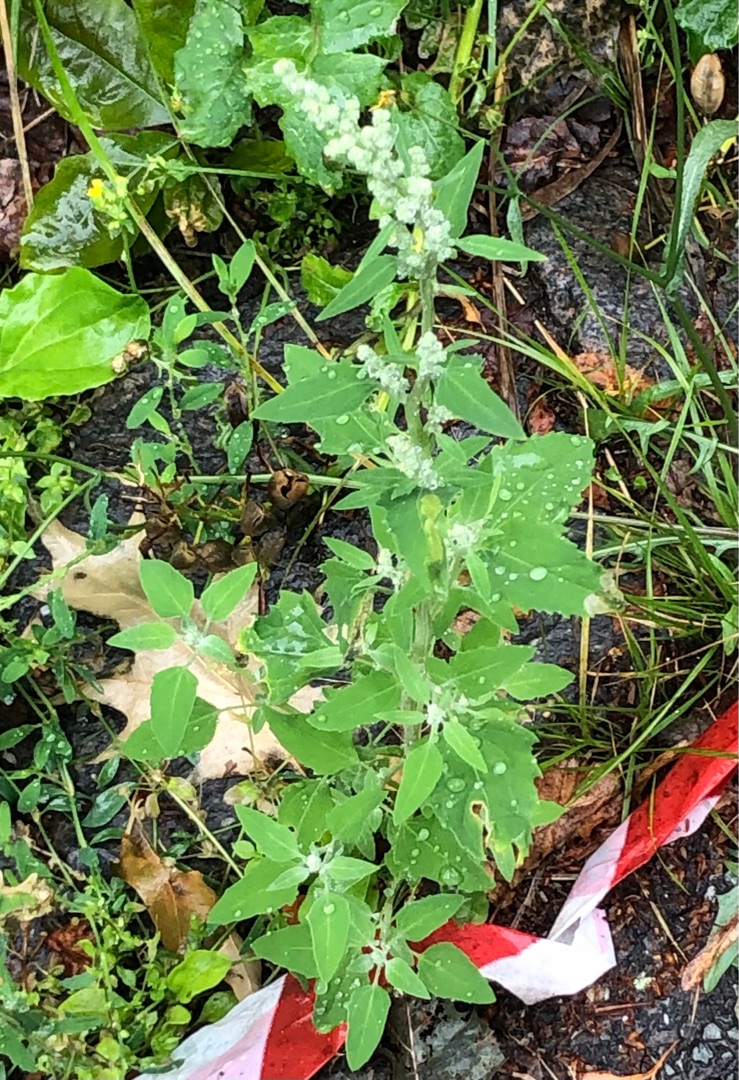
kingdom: Plantae
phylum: Tracheophyta
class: Magnoliopsida
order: Caryophyllales
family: Amaranthaceae
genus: Chenopodium
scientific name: Chenopodium album
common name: Hvidmelet gåsefod
